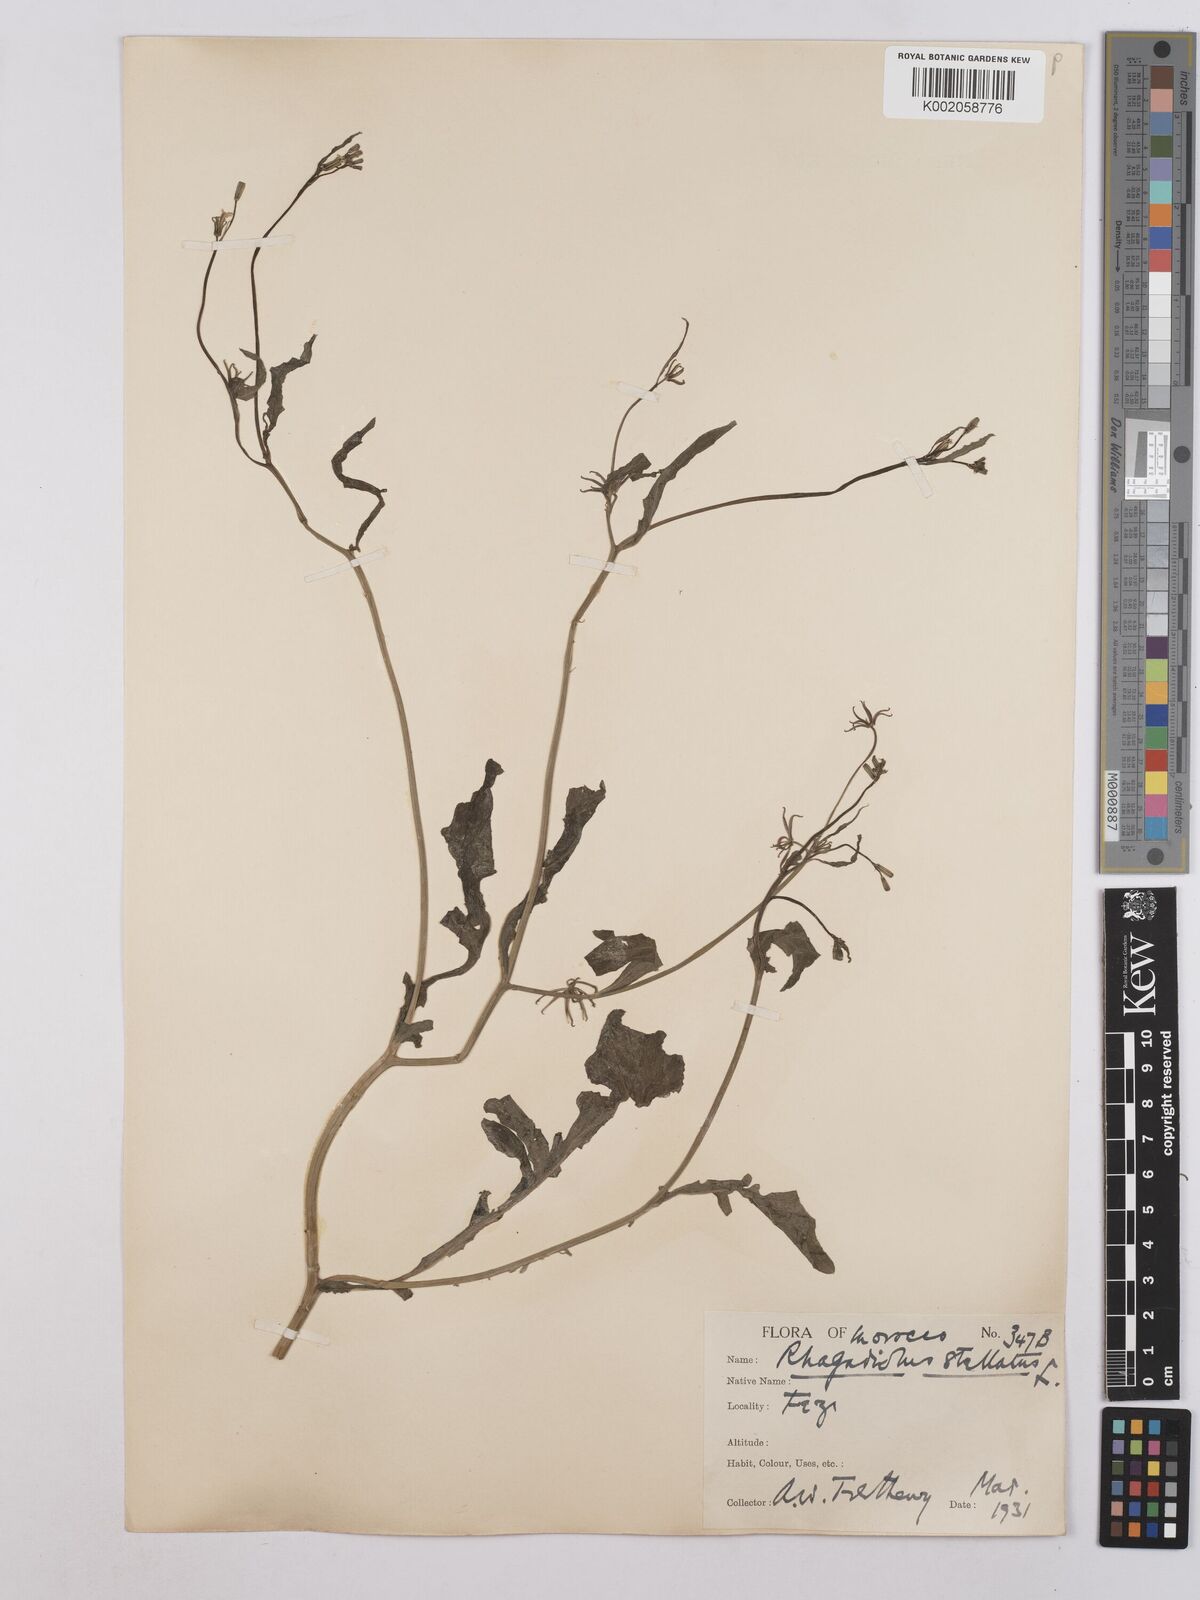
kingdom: Plantae
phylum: Tracheophyta
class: Magnoliopsida
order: Asterales
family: Asteraceae
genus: Rhagadiolus
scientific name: Rhagadiolus stellatus
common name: Star hawkbit
